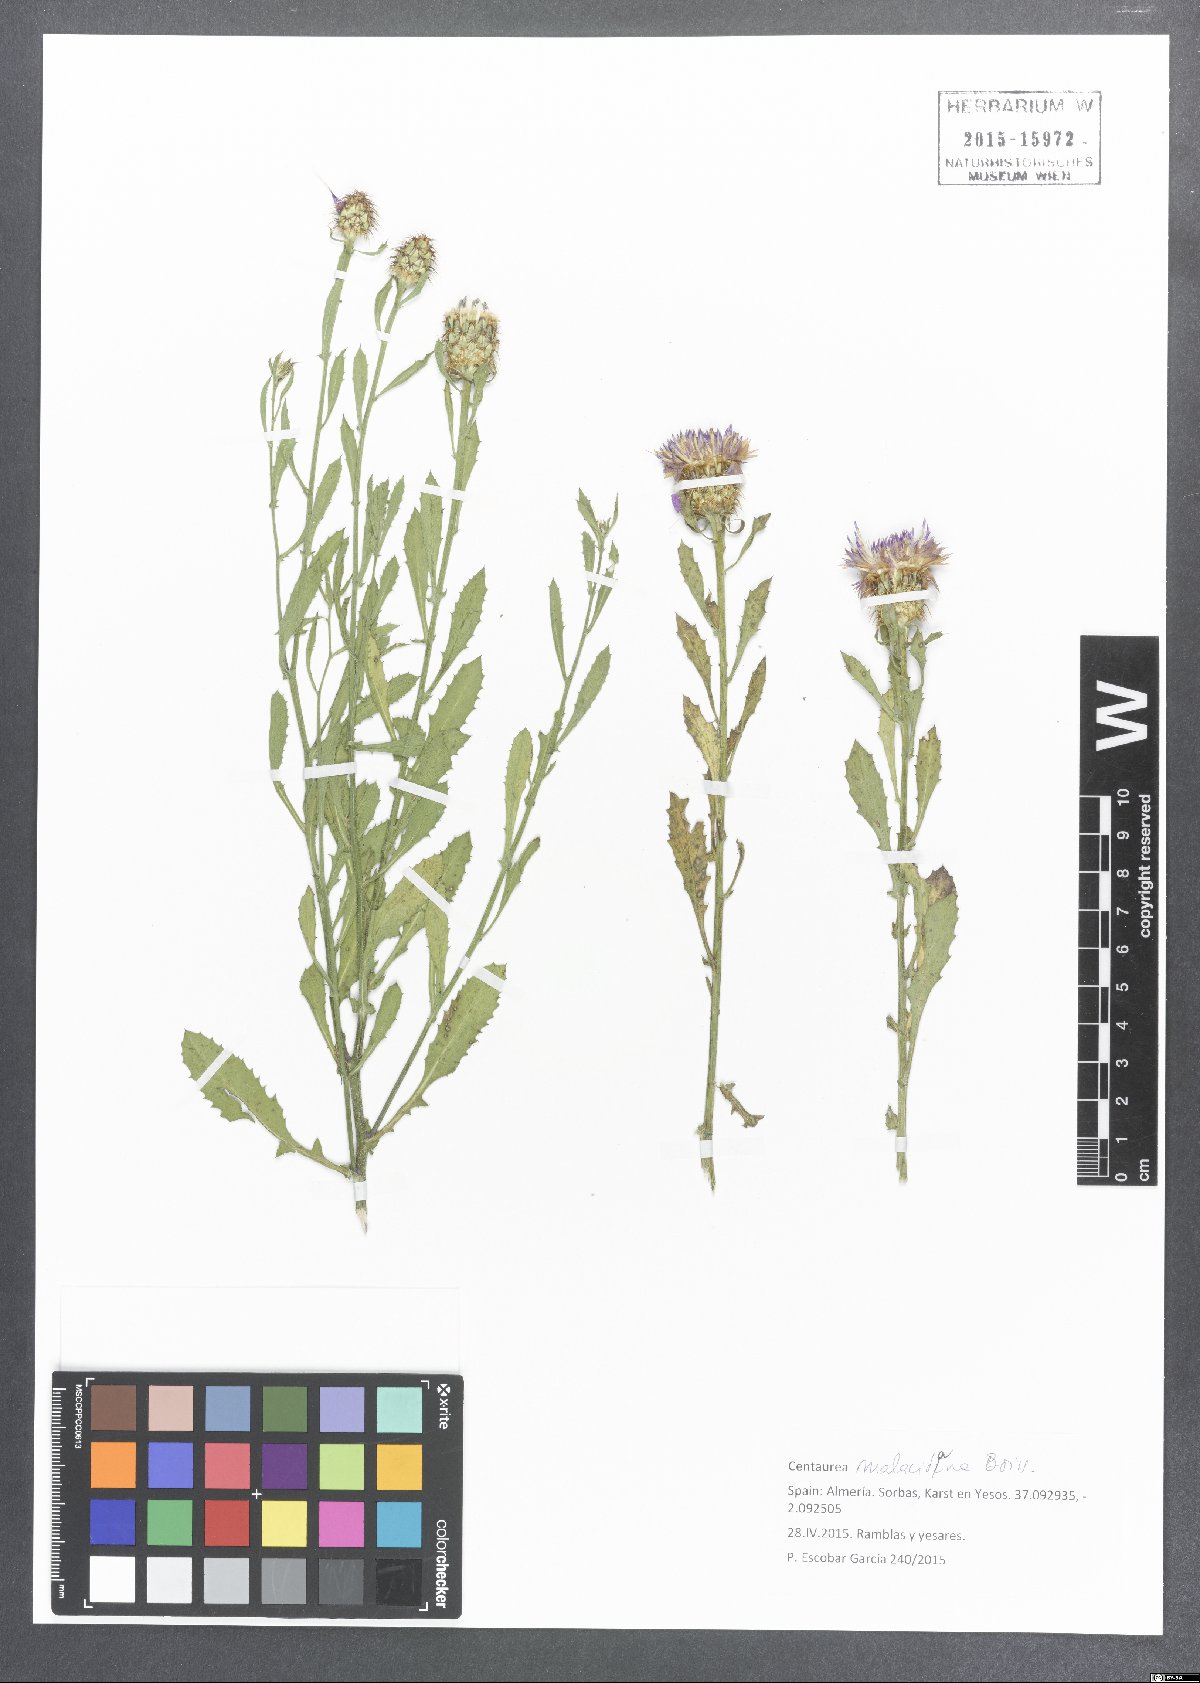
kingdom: Plantae
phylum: Tracheophyta
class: Magnoliopsida
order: Asterales
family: Asteraceae
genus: Centaurea
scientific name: Centaurea malacitana
